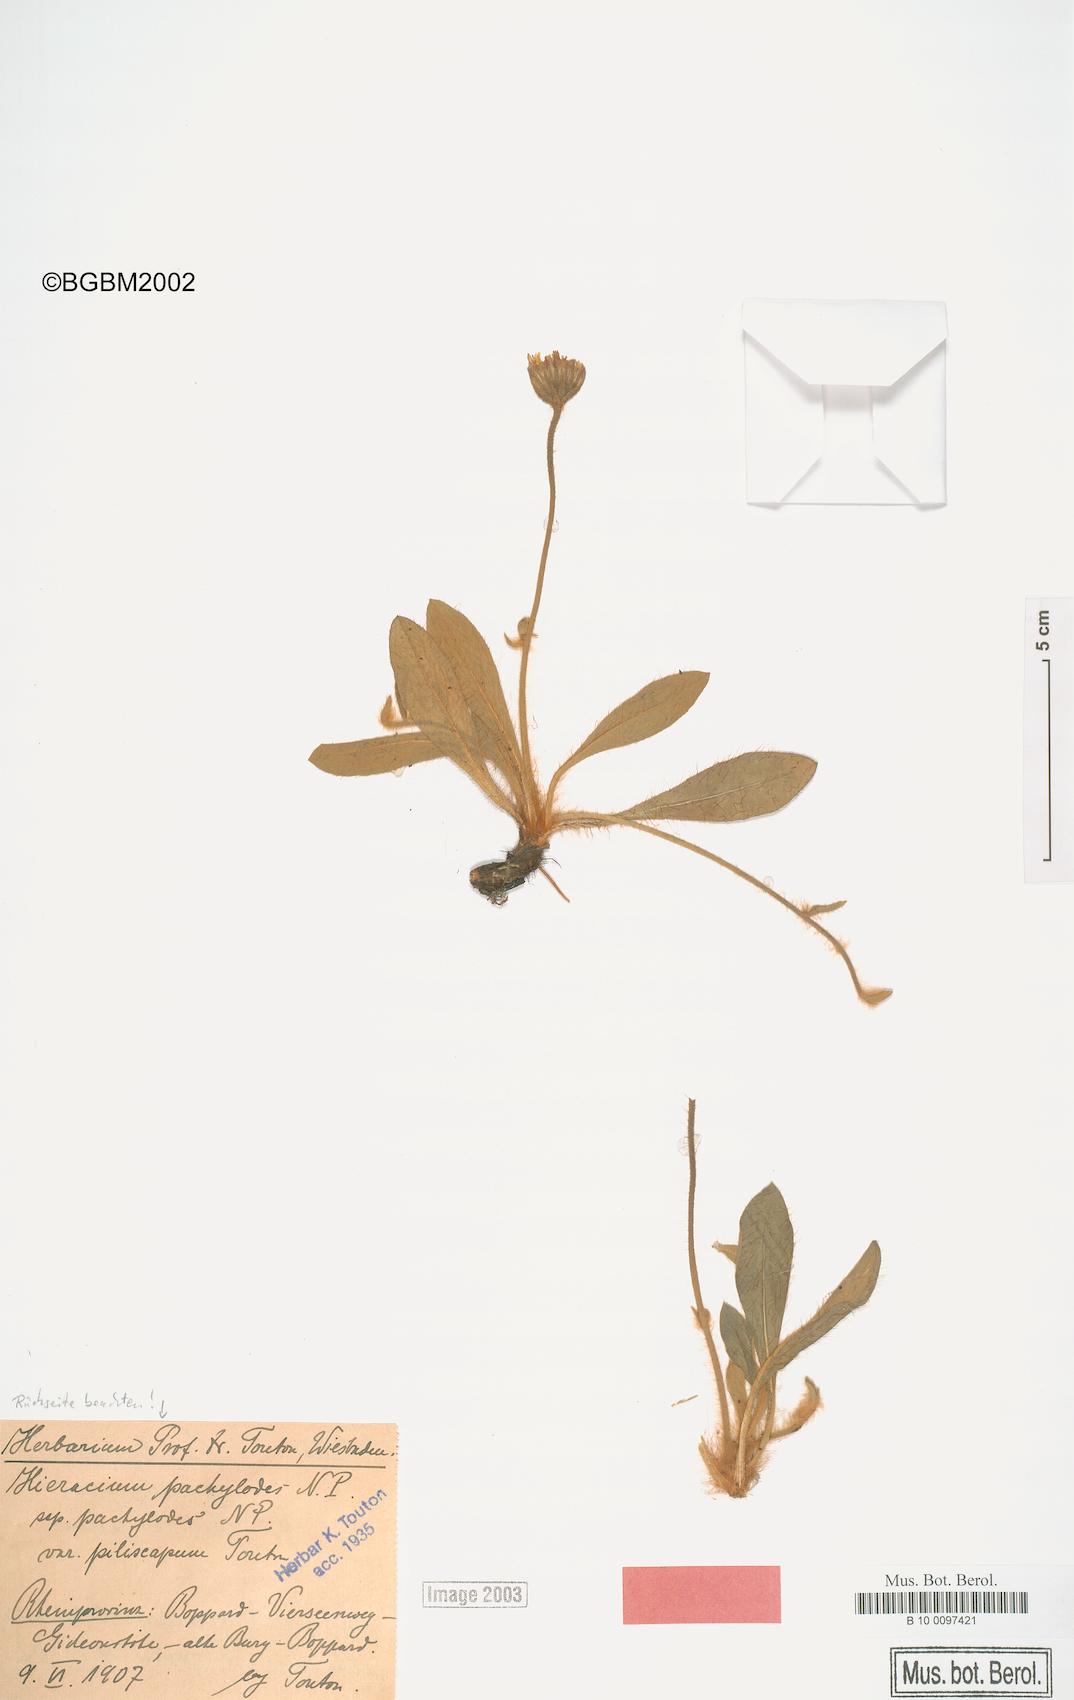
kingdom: Plantae
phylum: Tracheophyta
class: Magnoliopsida
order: Asterales
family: Asteraceae
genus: Pilosella
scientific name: Pilosella longisquama
